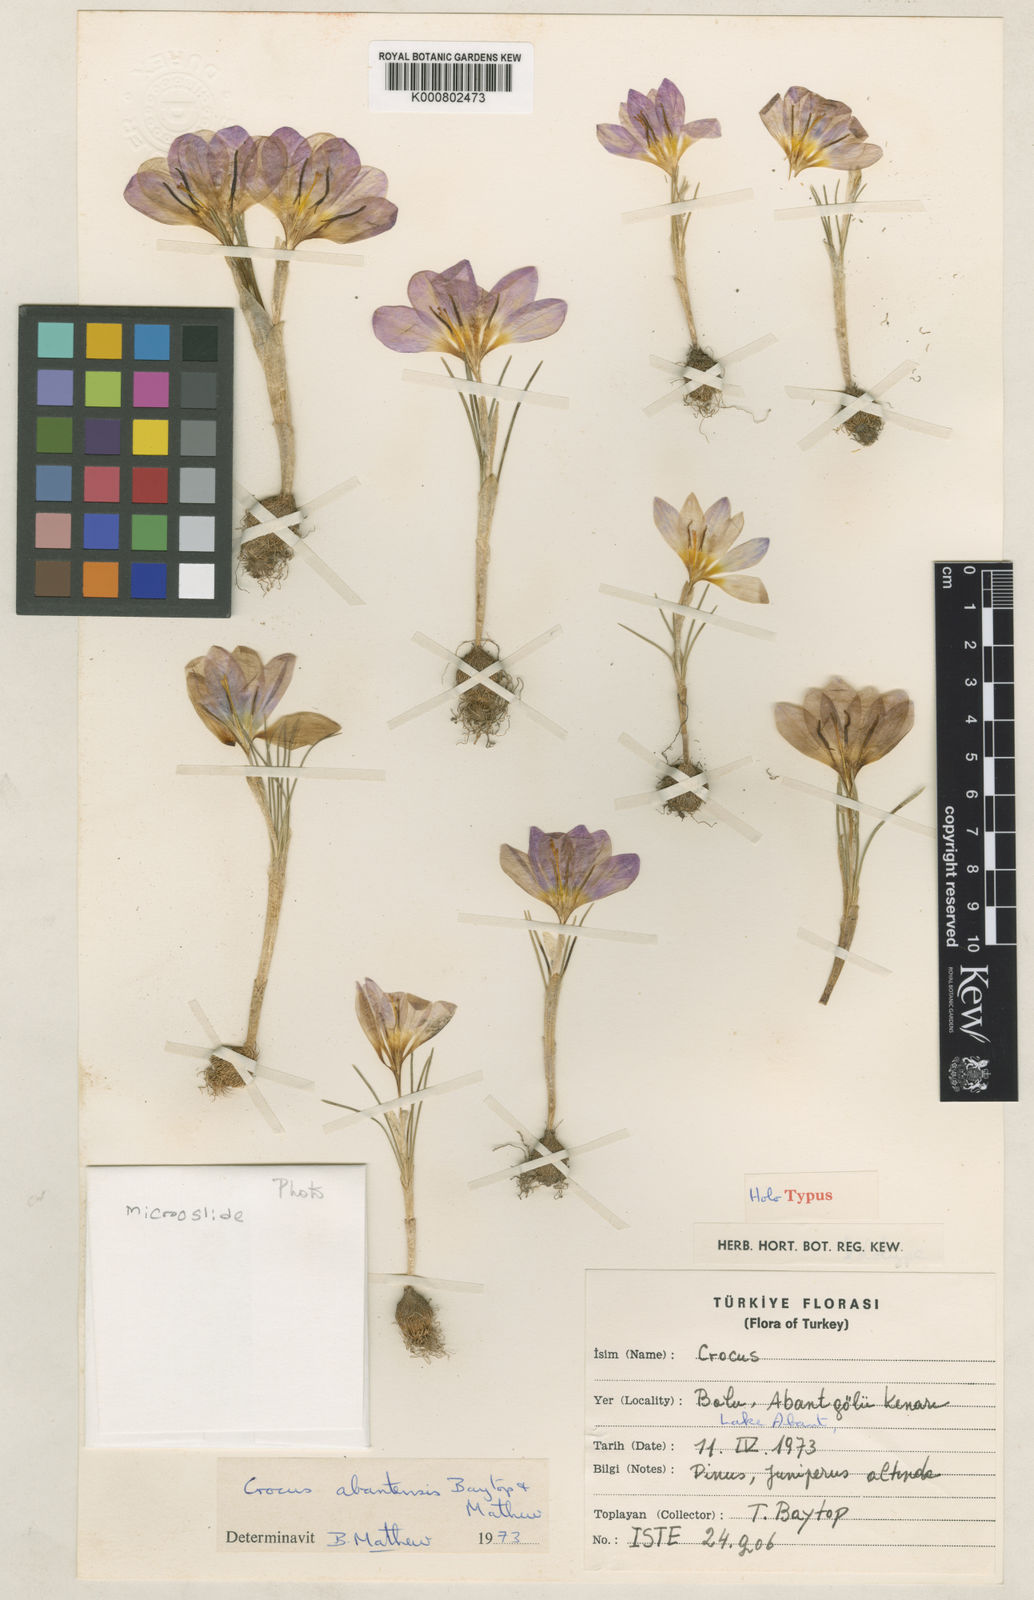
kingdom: Plantae
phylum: Tracheophyta
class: Liliopsida
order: Asparagales
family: Iridaceae
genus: Crocus
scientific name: Crocus abantensis
